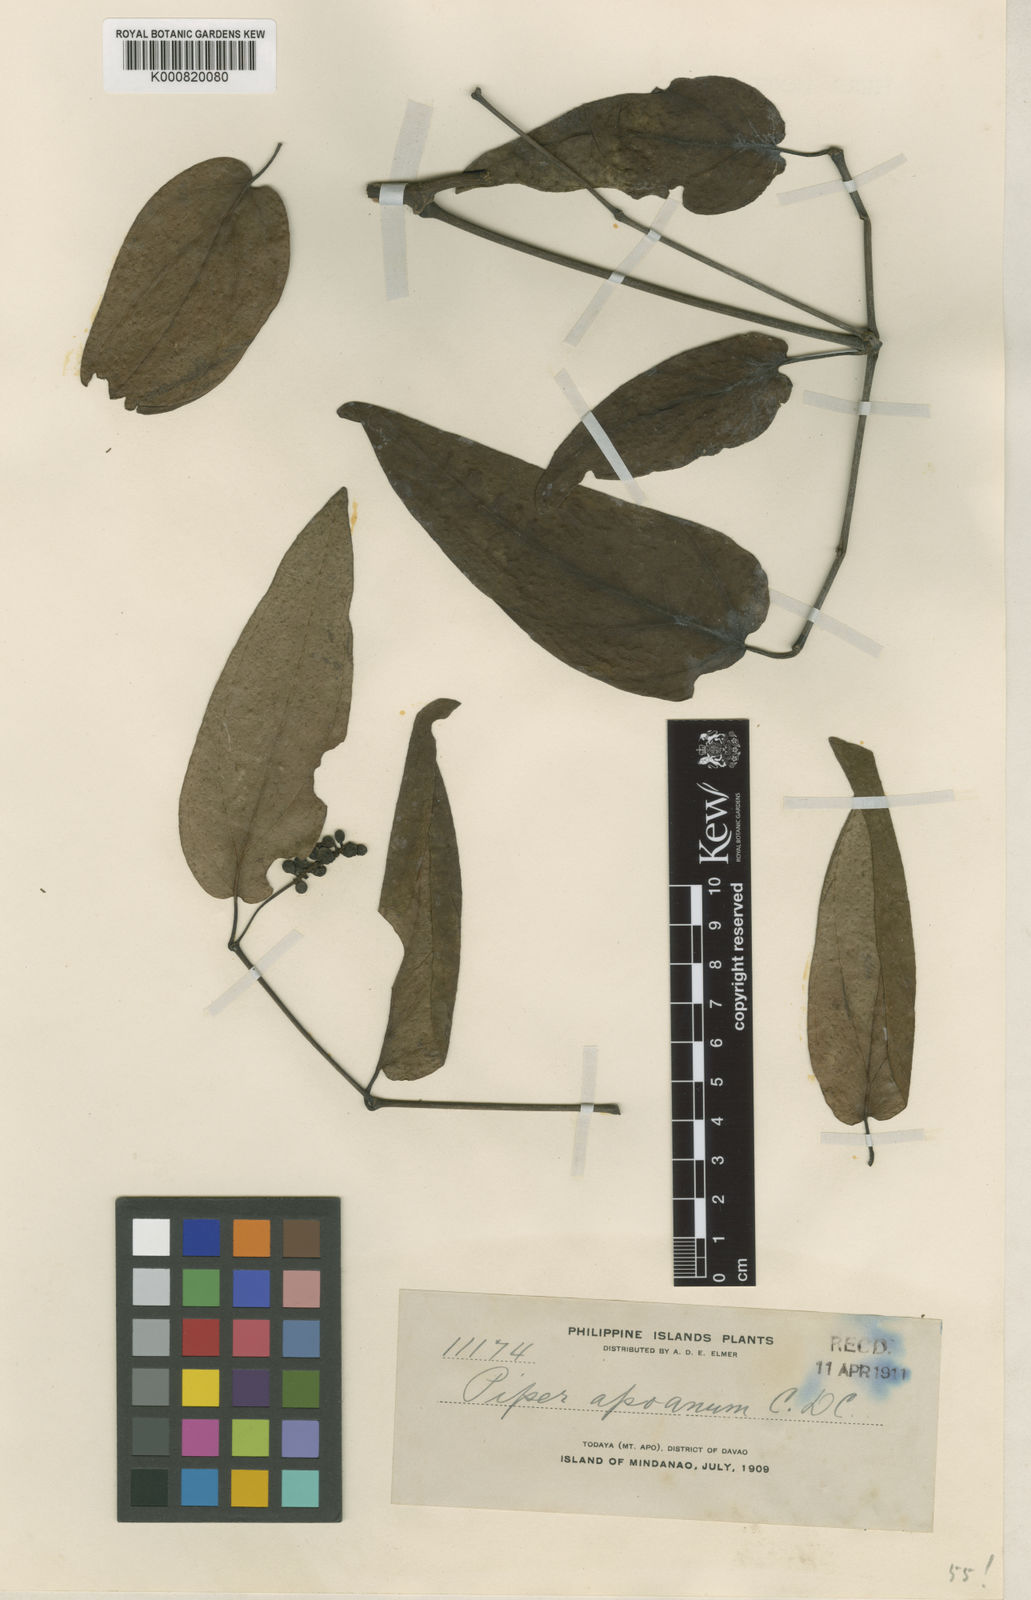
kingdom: Plantae
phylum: Tracheophyta
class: Magnoliopsida
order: Piperales
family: Piperaceae
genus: Piper
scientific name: Piper lanatum
